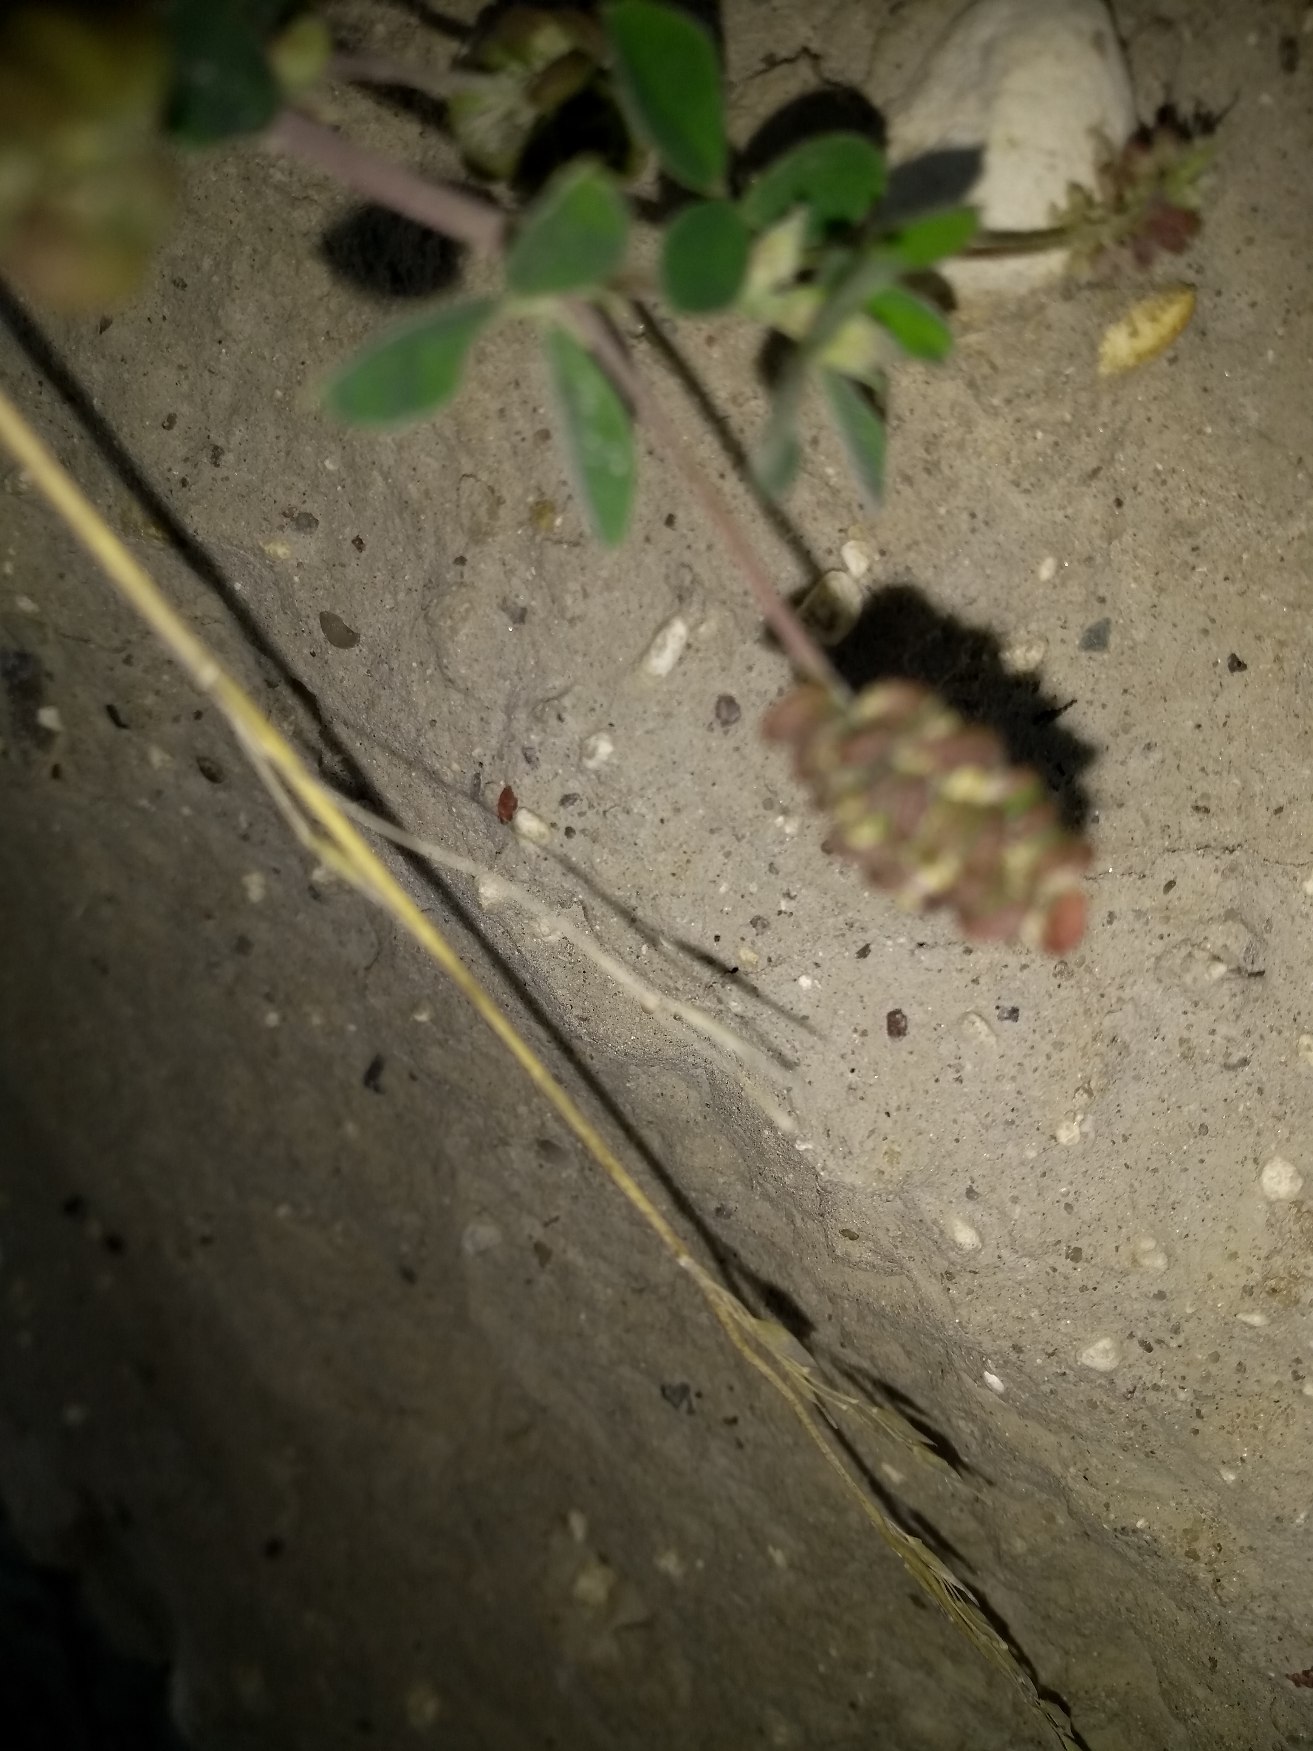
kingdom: Plantae
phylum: Tracheophyta
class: Magnoliopsida
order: Fabales
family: Fabaceae
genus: Medicago
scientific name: Medicago lupulina
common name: Humle-sneglebælg
